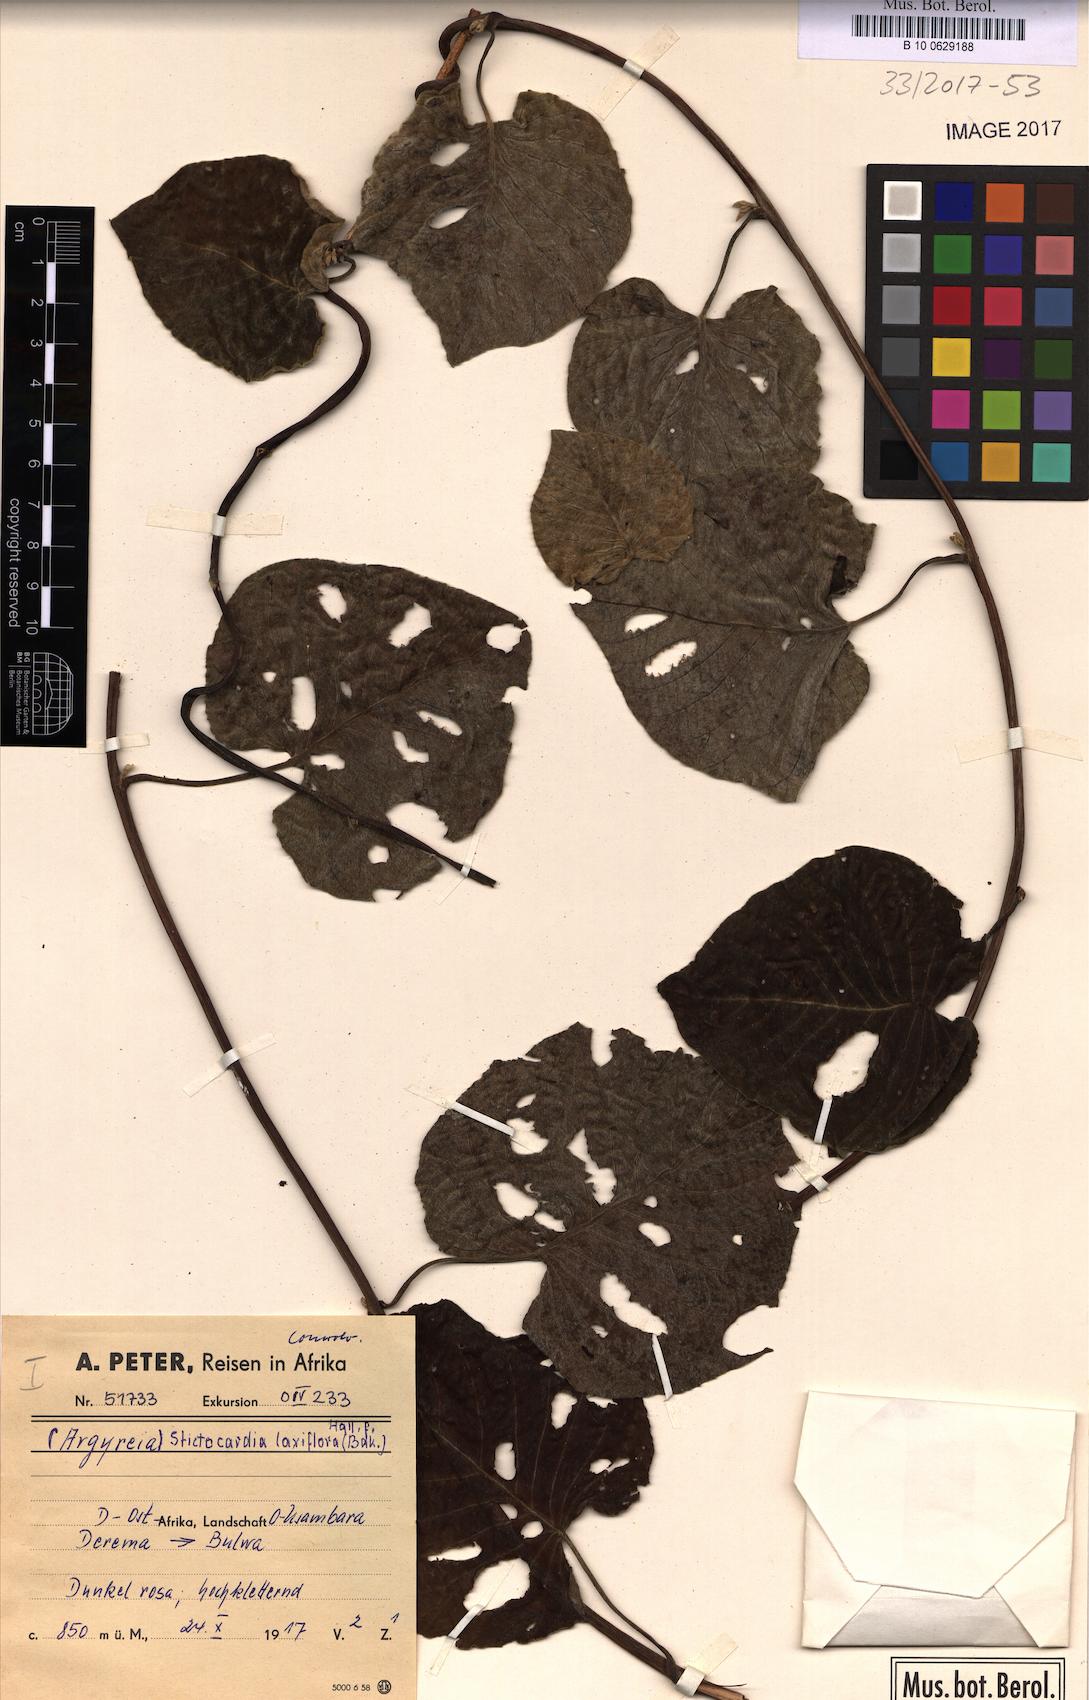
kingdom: Plantae
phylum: Tracheophyta
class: Magnoliopsida
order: Solanales
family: Convolvulaceae
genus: Stictocardia
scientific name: Stictocardia laxiflora
